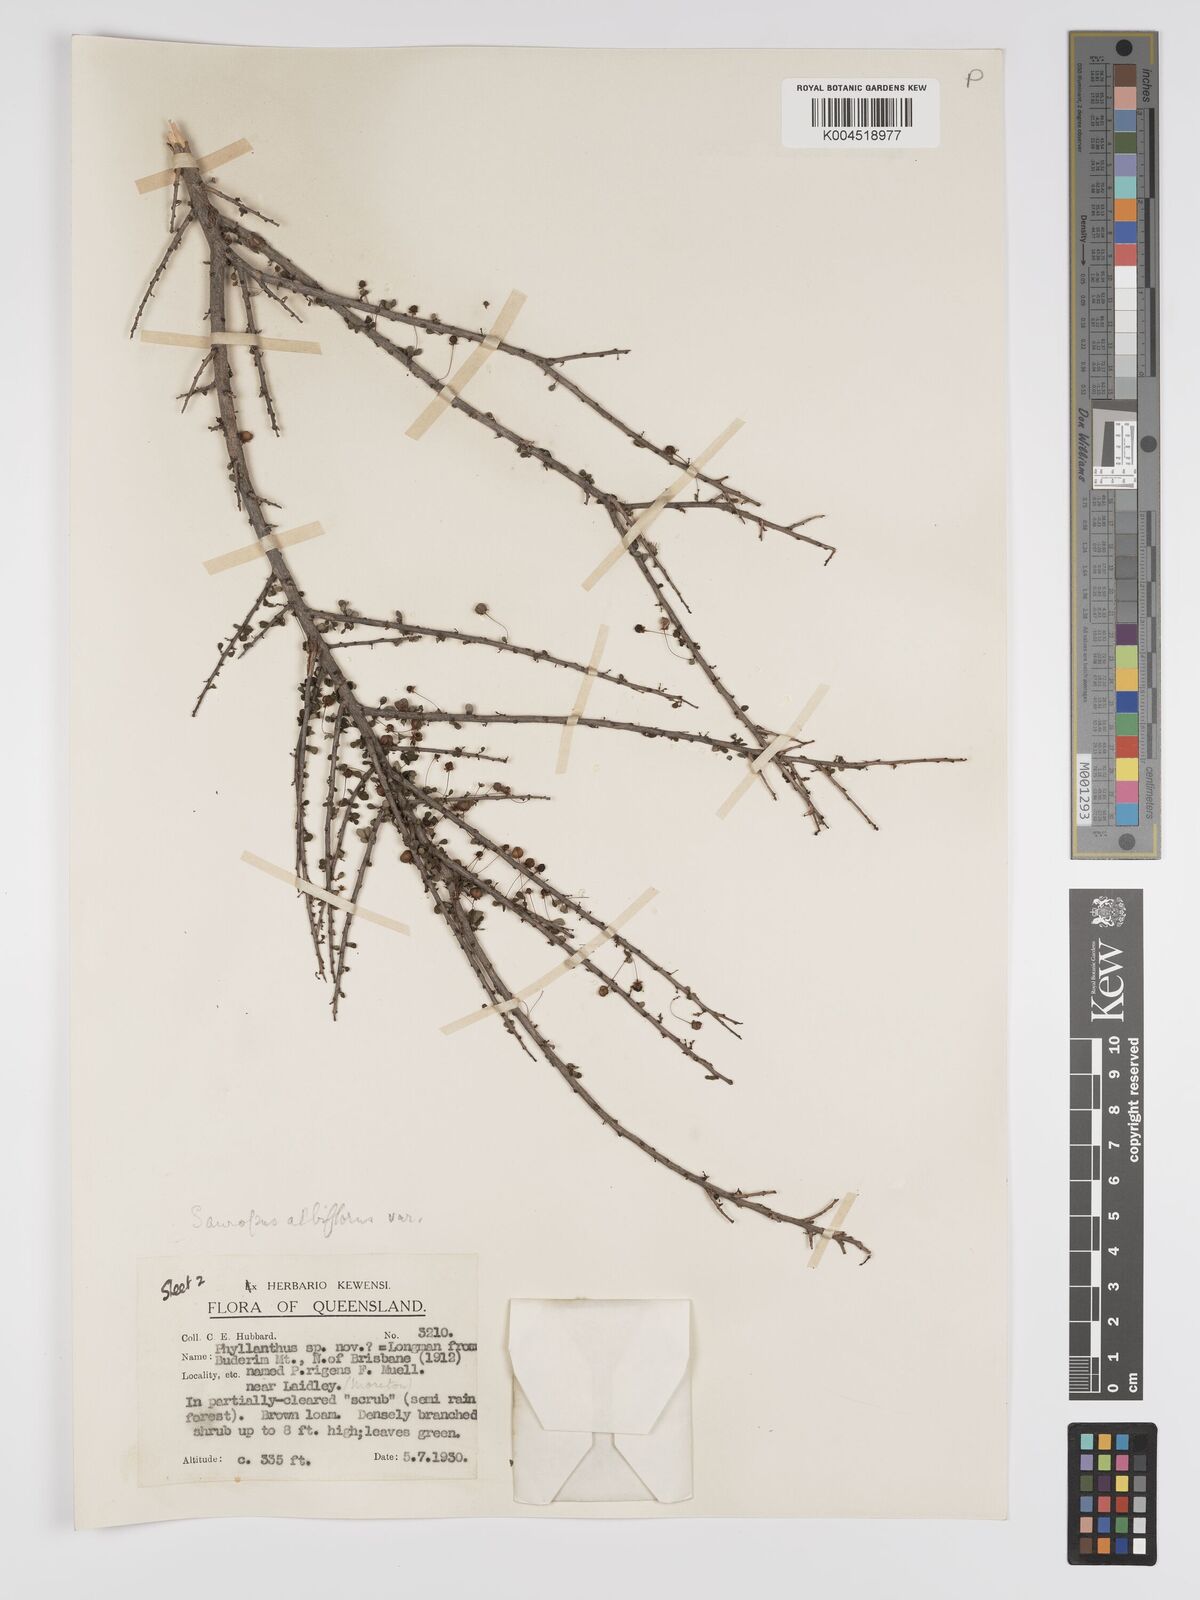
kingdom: Plantae
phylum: Tracheophyta
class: Magnoliopsida
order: Malpighiales
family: Phyllanthaceae
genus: Phyllanthus
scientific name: Phyllanthus microcladus
